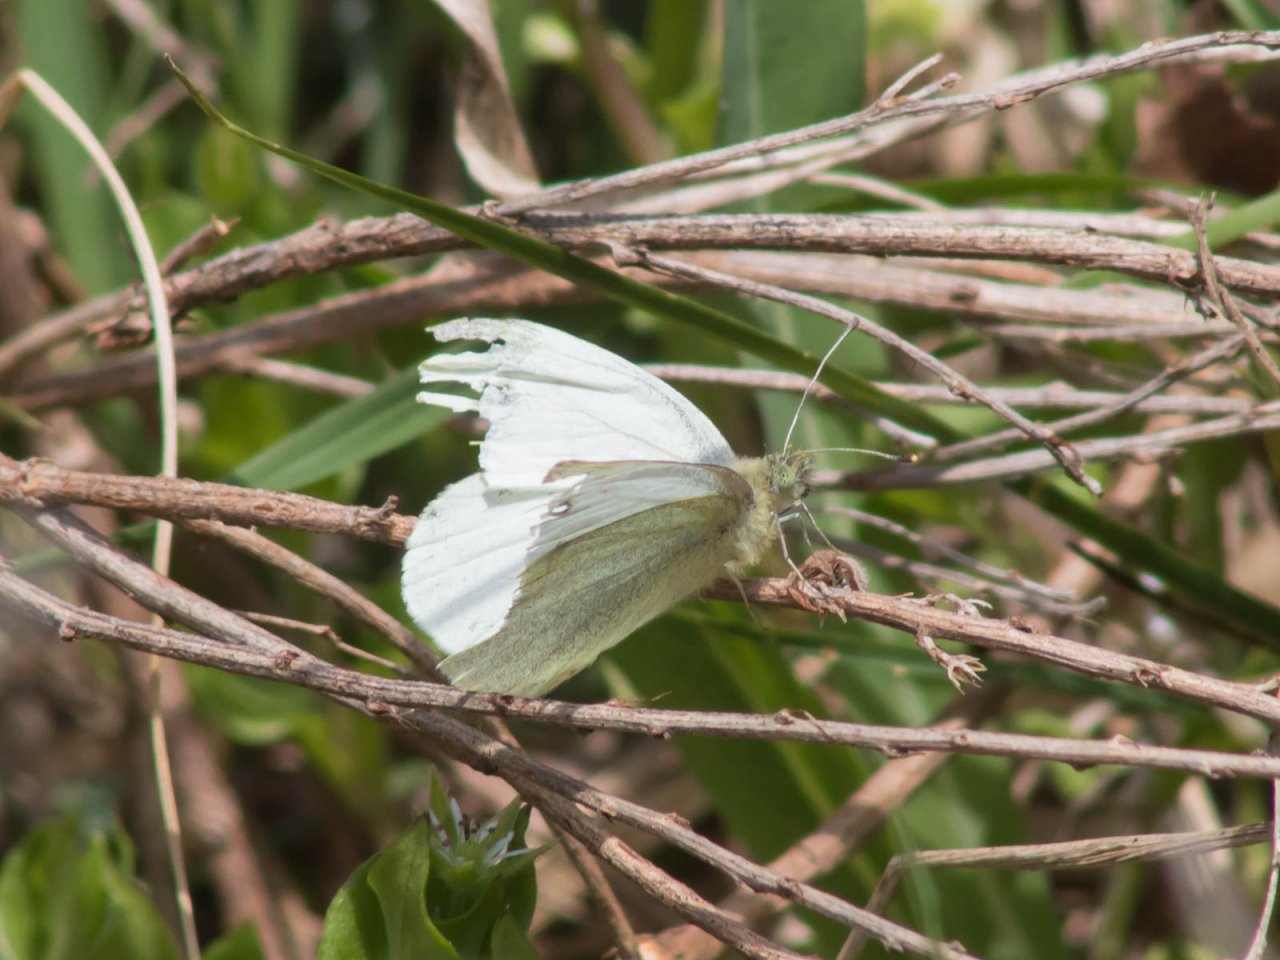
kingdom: Animalia
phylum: Arthropoda
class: Insecta
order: Lepidoptera
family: Pieridae
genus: Pieris
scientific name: Pieris rapae
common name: Cabbage White
